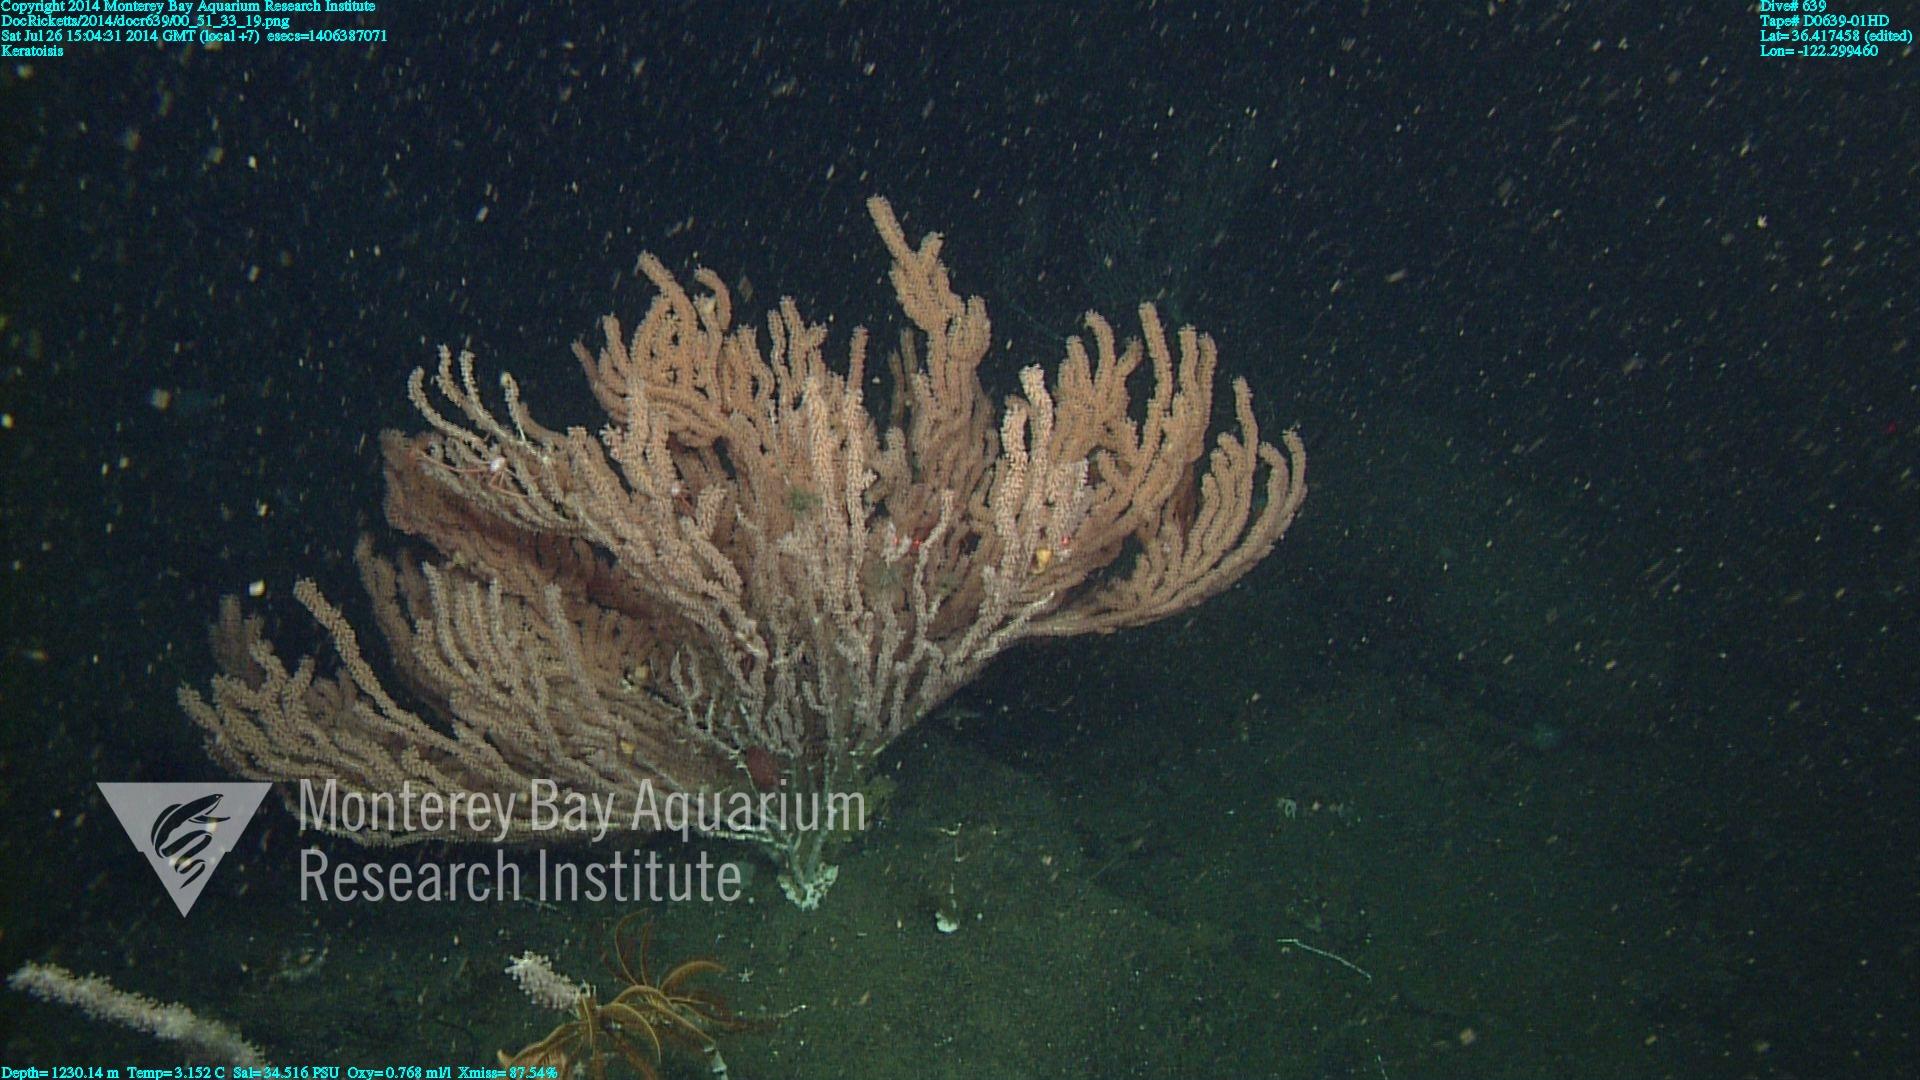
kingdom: Animalia
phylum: Cnidaria
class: Anthozoa
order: Scleralcyonacea
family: Keratoisididae
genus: Keratoisis
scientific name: Keratoisis
